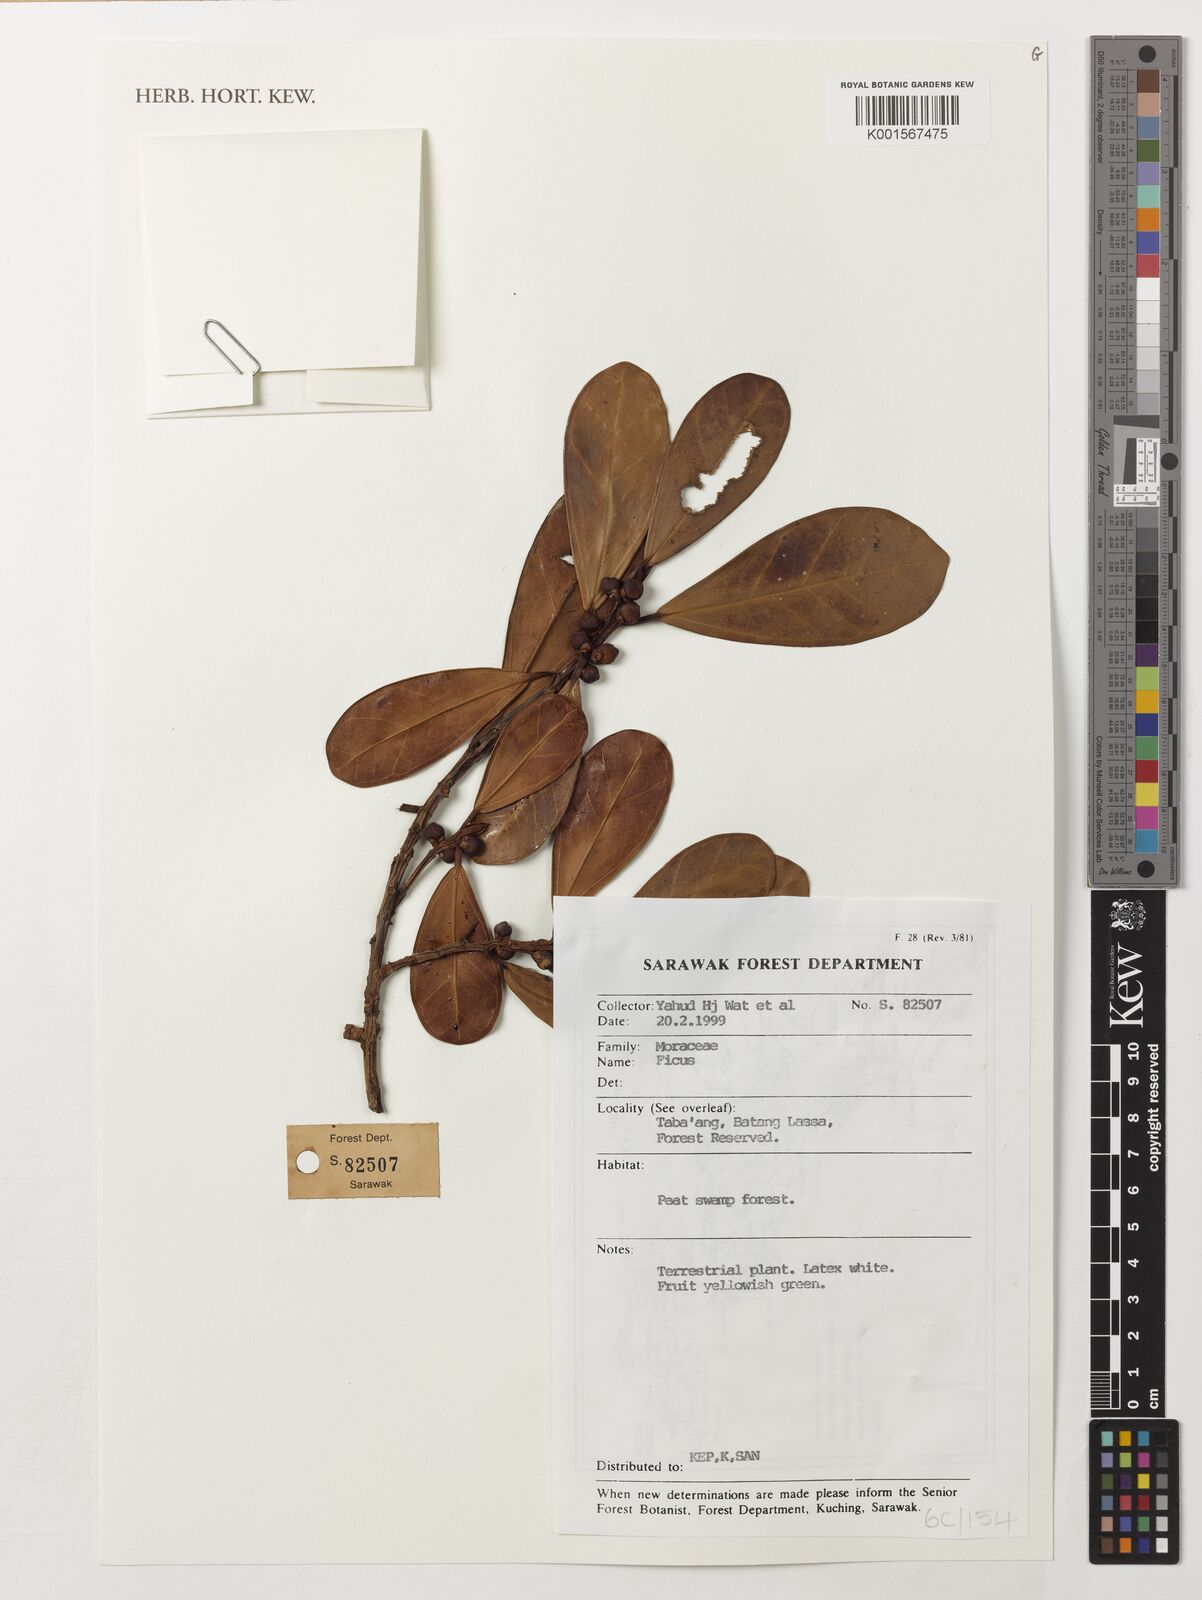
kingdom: Plantae
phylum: Tracheophyta
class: Magnoliopsida
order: Rosales
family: Moraceae
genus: Ficus
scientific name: Ficus
